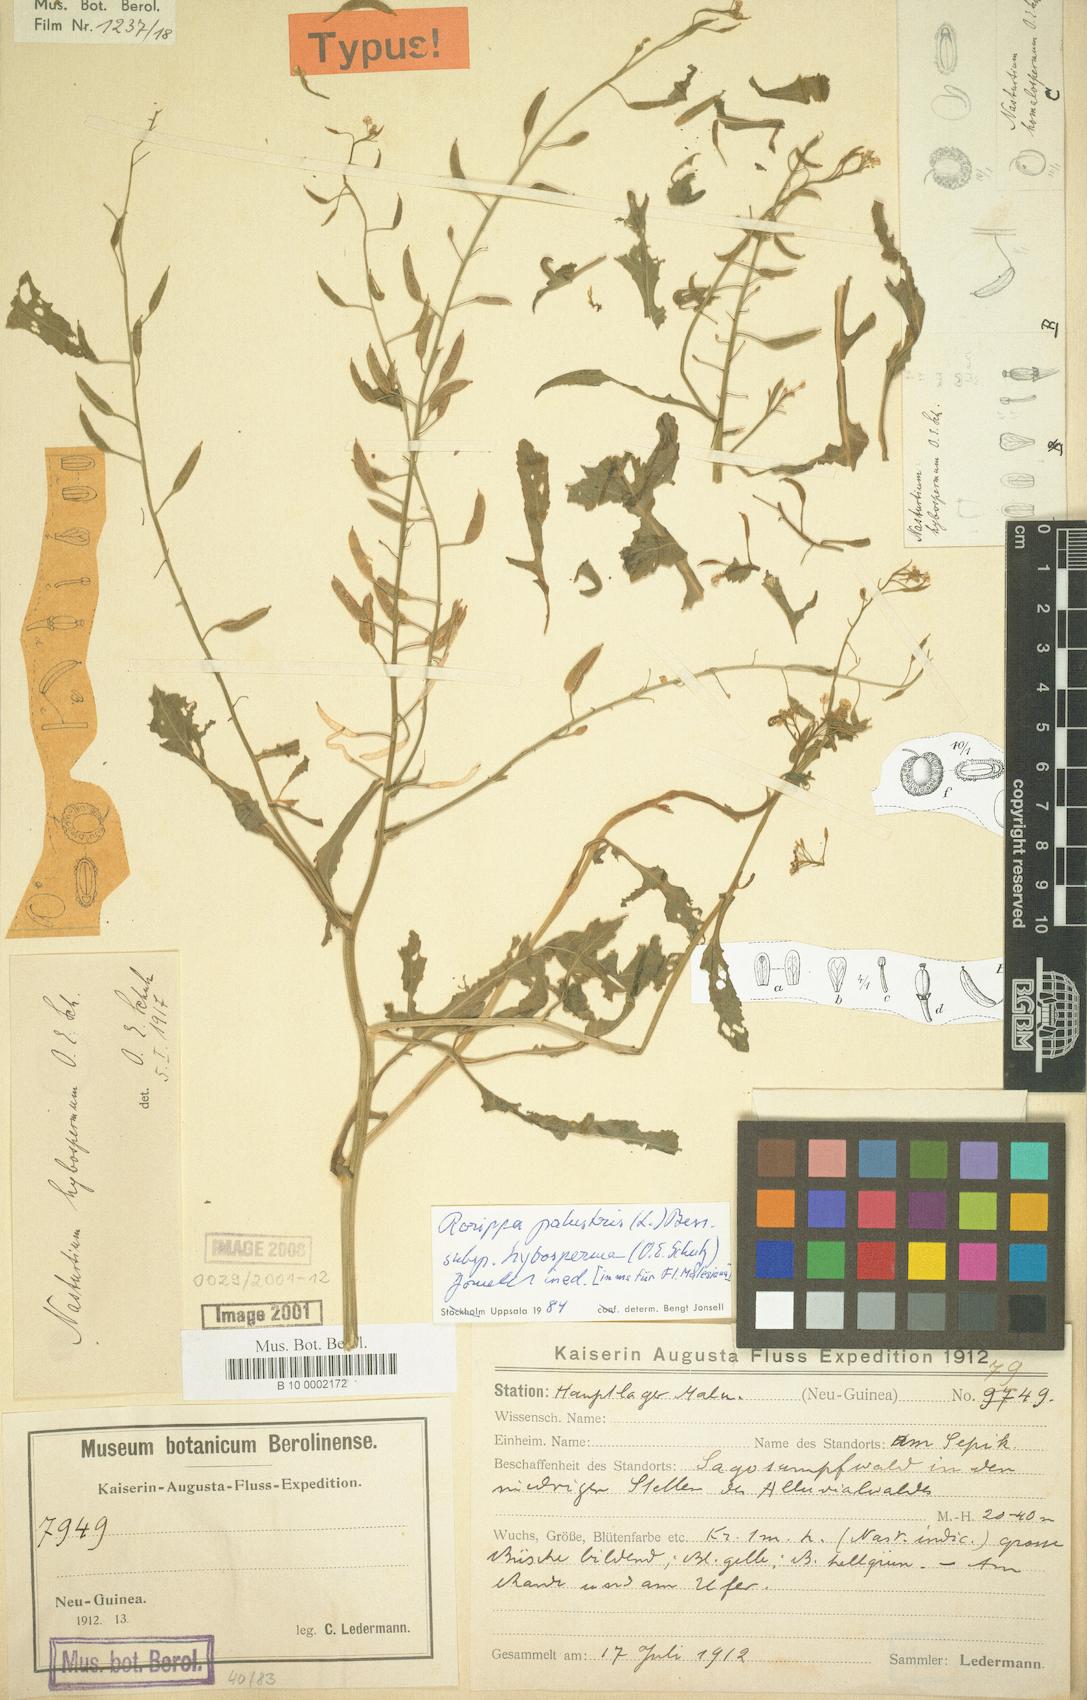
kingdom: Plantae
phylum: Tracheophyta
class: Magnoliopsida
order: Brassicales
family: Brassicaceae
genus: Rorippa
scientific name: Rorippa palustris
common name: Marsh yellow-cress
